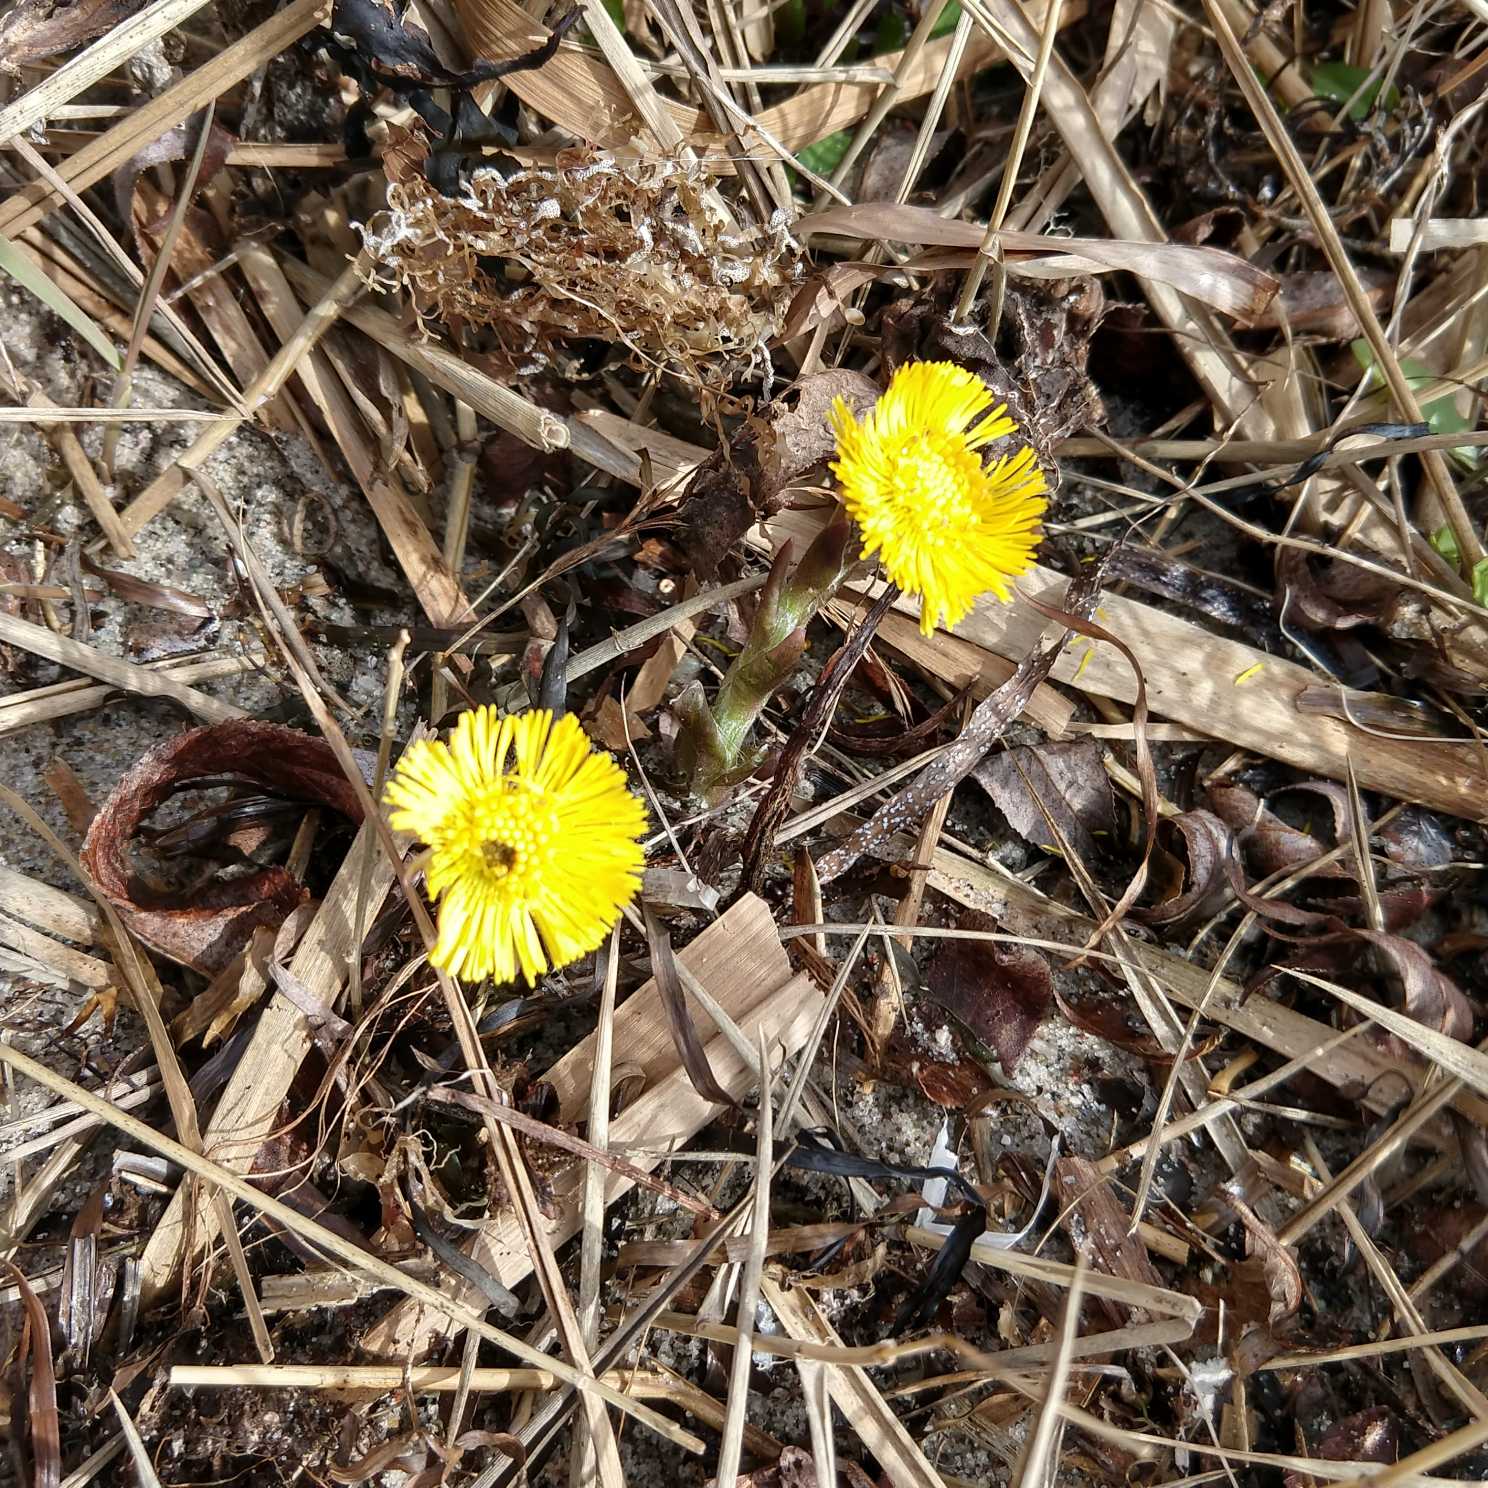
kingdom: Plantae
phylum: Tracheophyta
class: Magnoliopsida
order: Asterales
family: Asteraceae
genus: Tussilago
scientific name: Tussilago farfara
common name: Følfod
